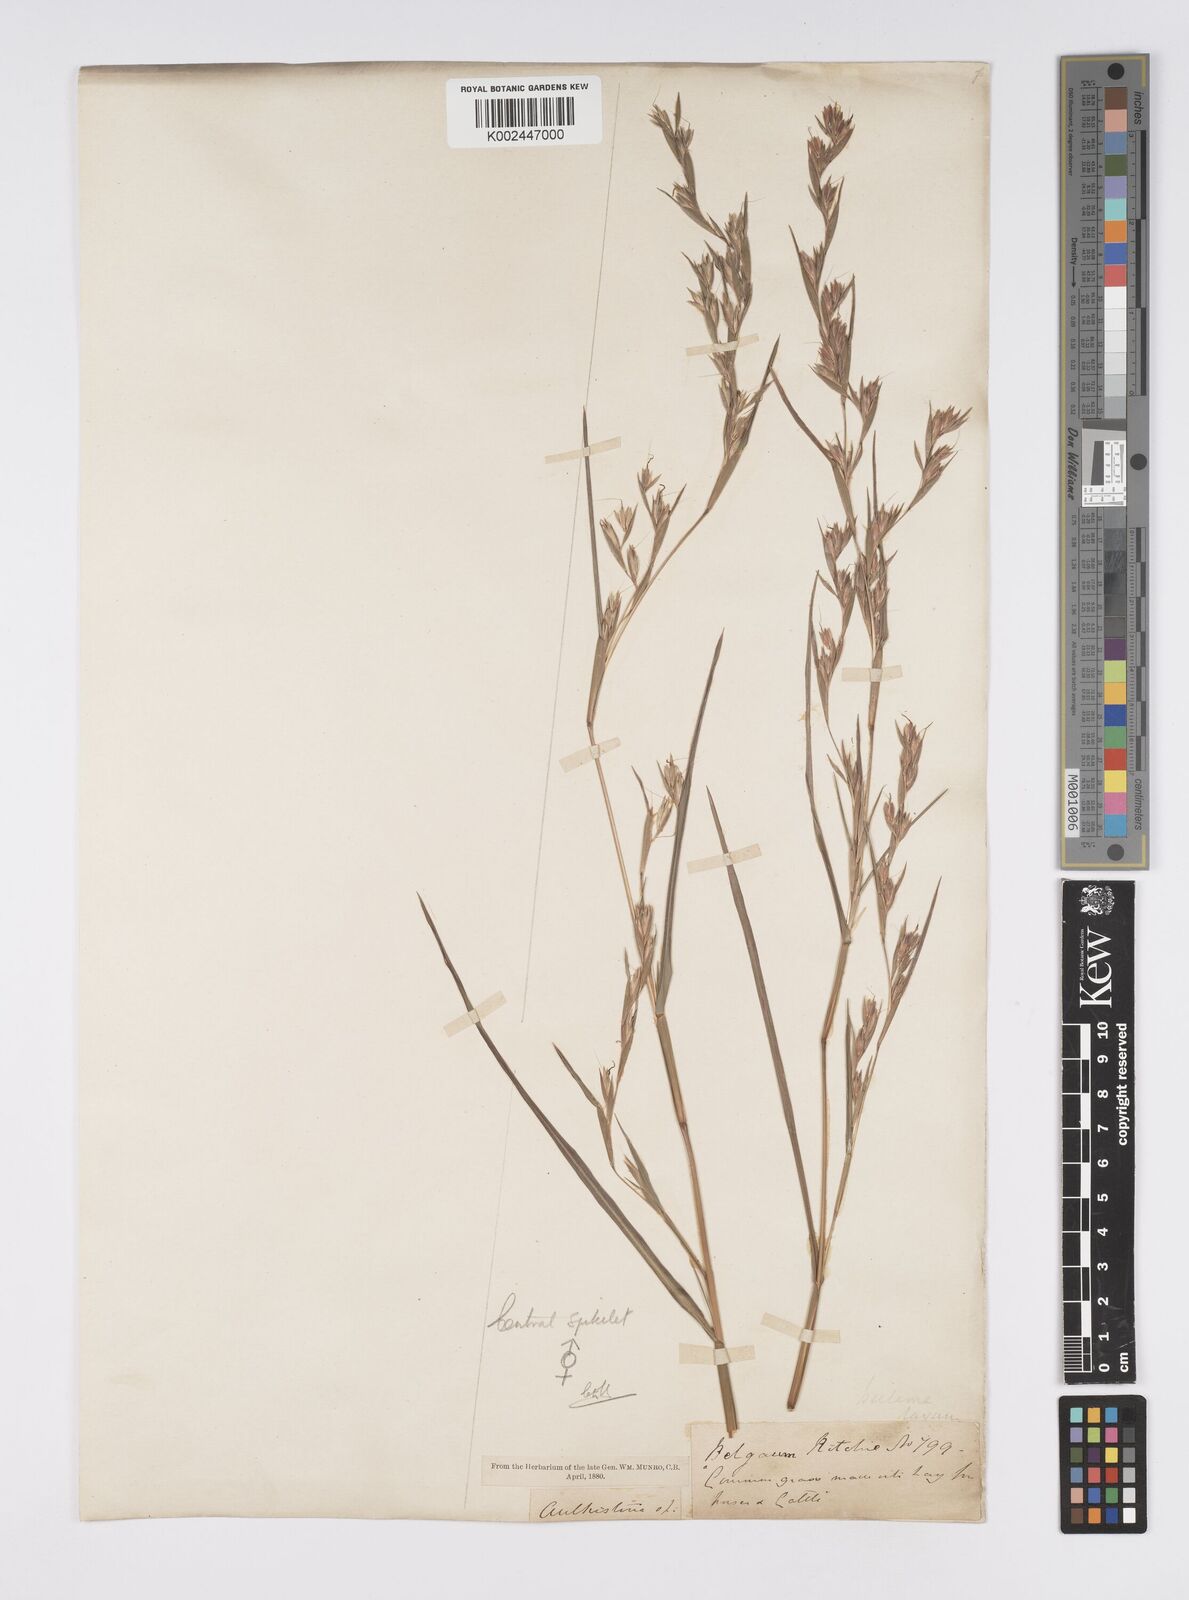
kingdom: Plantae
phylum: Tracheophyta
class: Liliopsida
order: Poales
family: Poaceae
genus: Iseilema
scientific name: Iseilema prostratum
